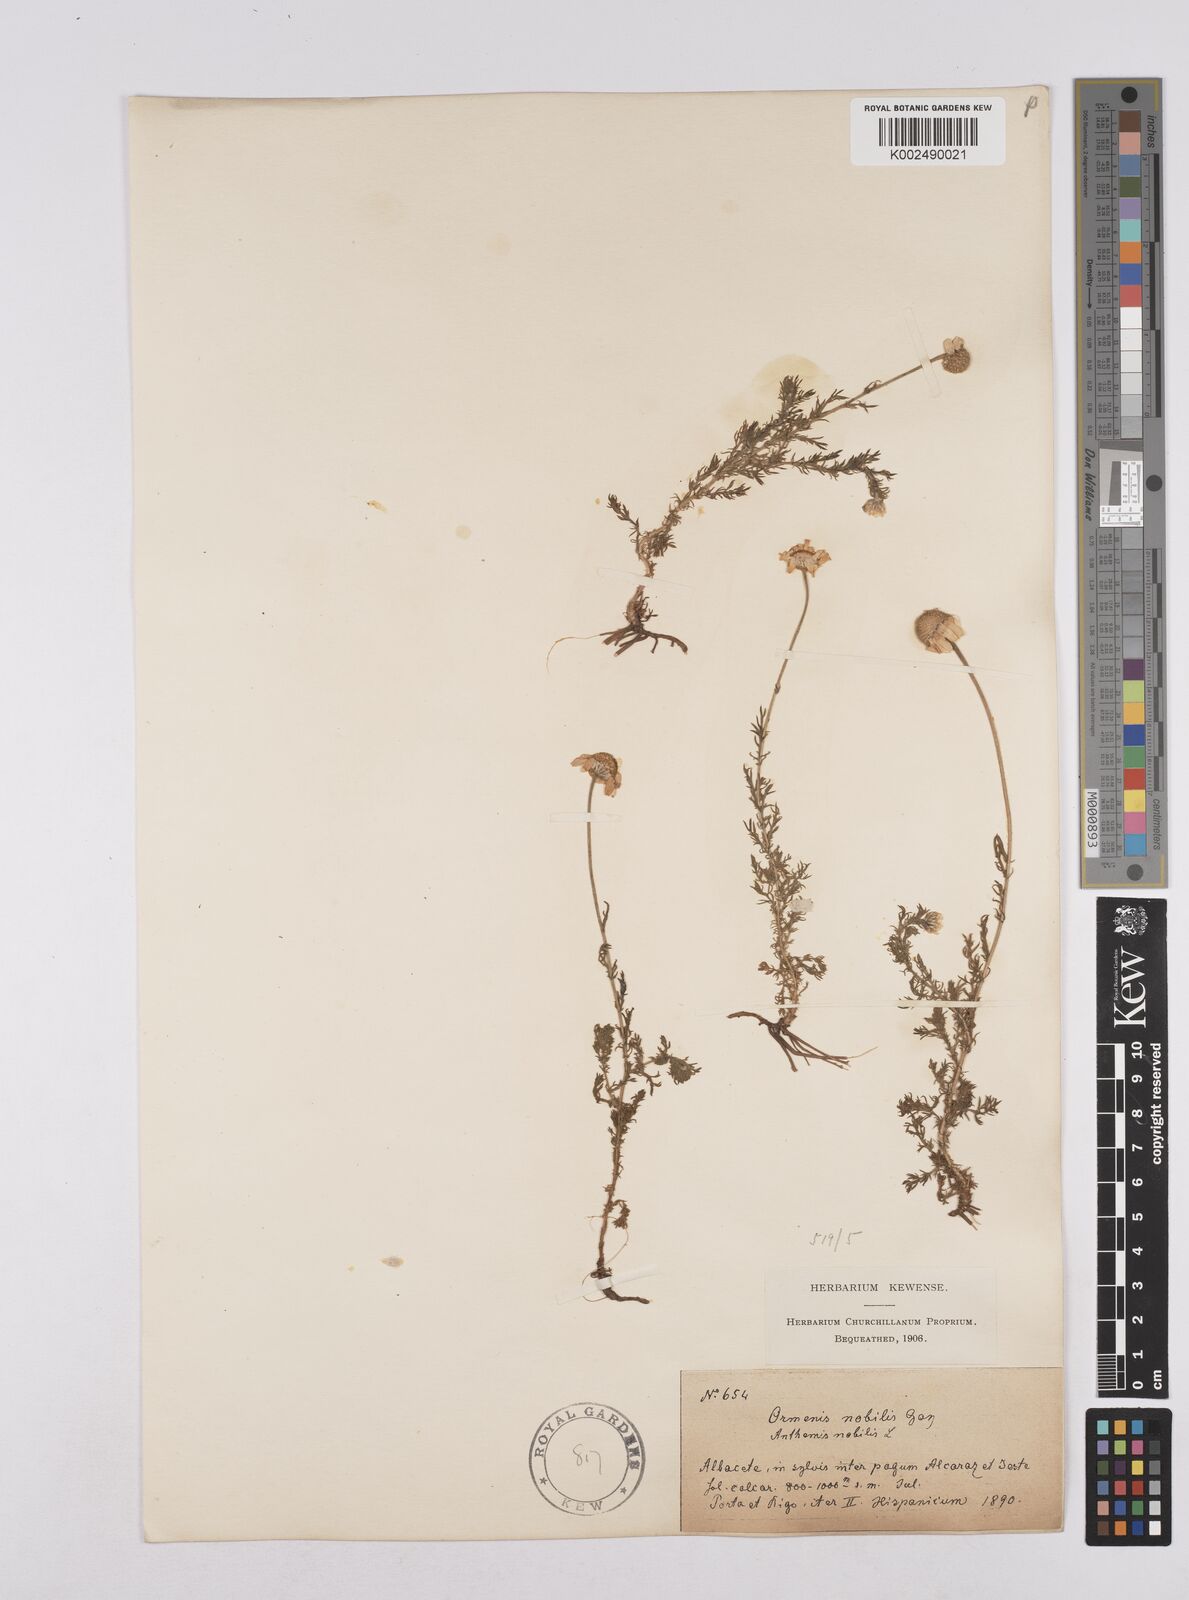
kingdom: Plantae
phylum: Tracheophyta
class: Magnoliopsida
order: Asterales
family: Asteraceae
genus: Chamaemelum
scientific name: Chamaemelum
